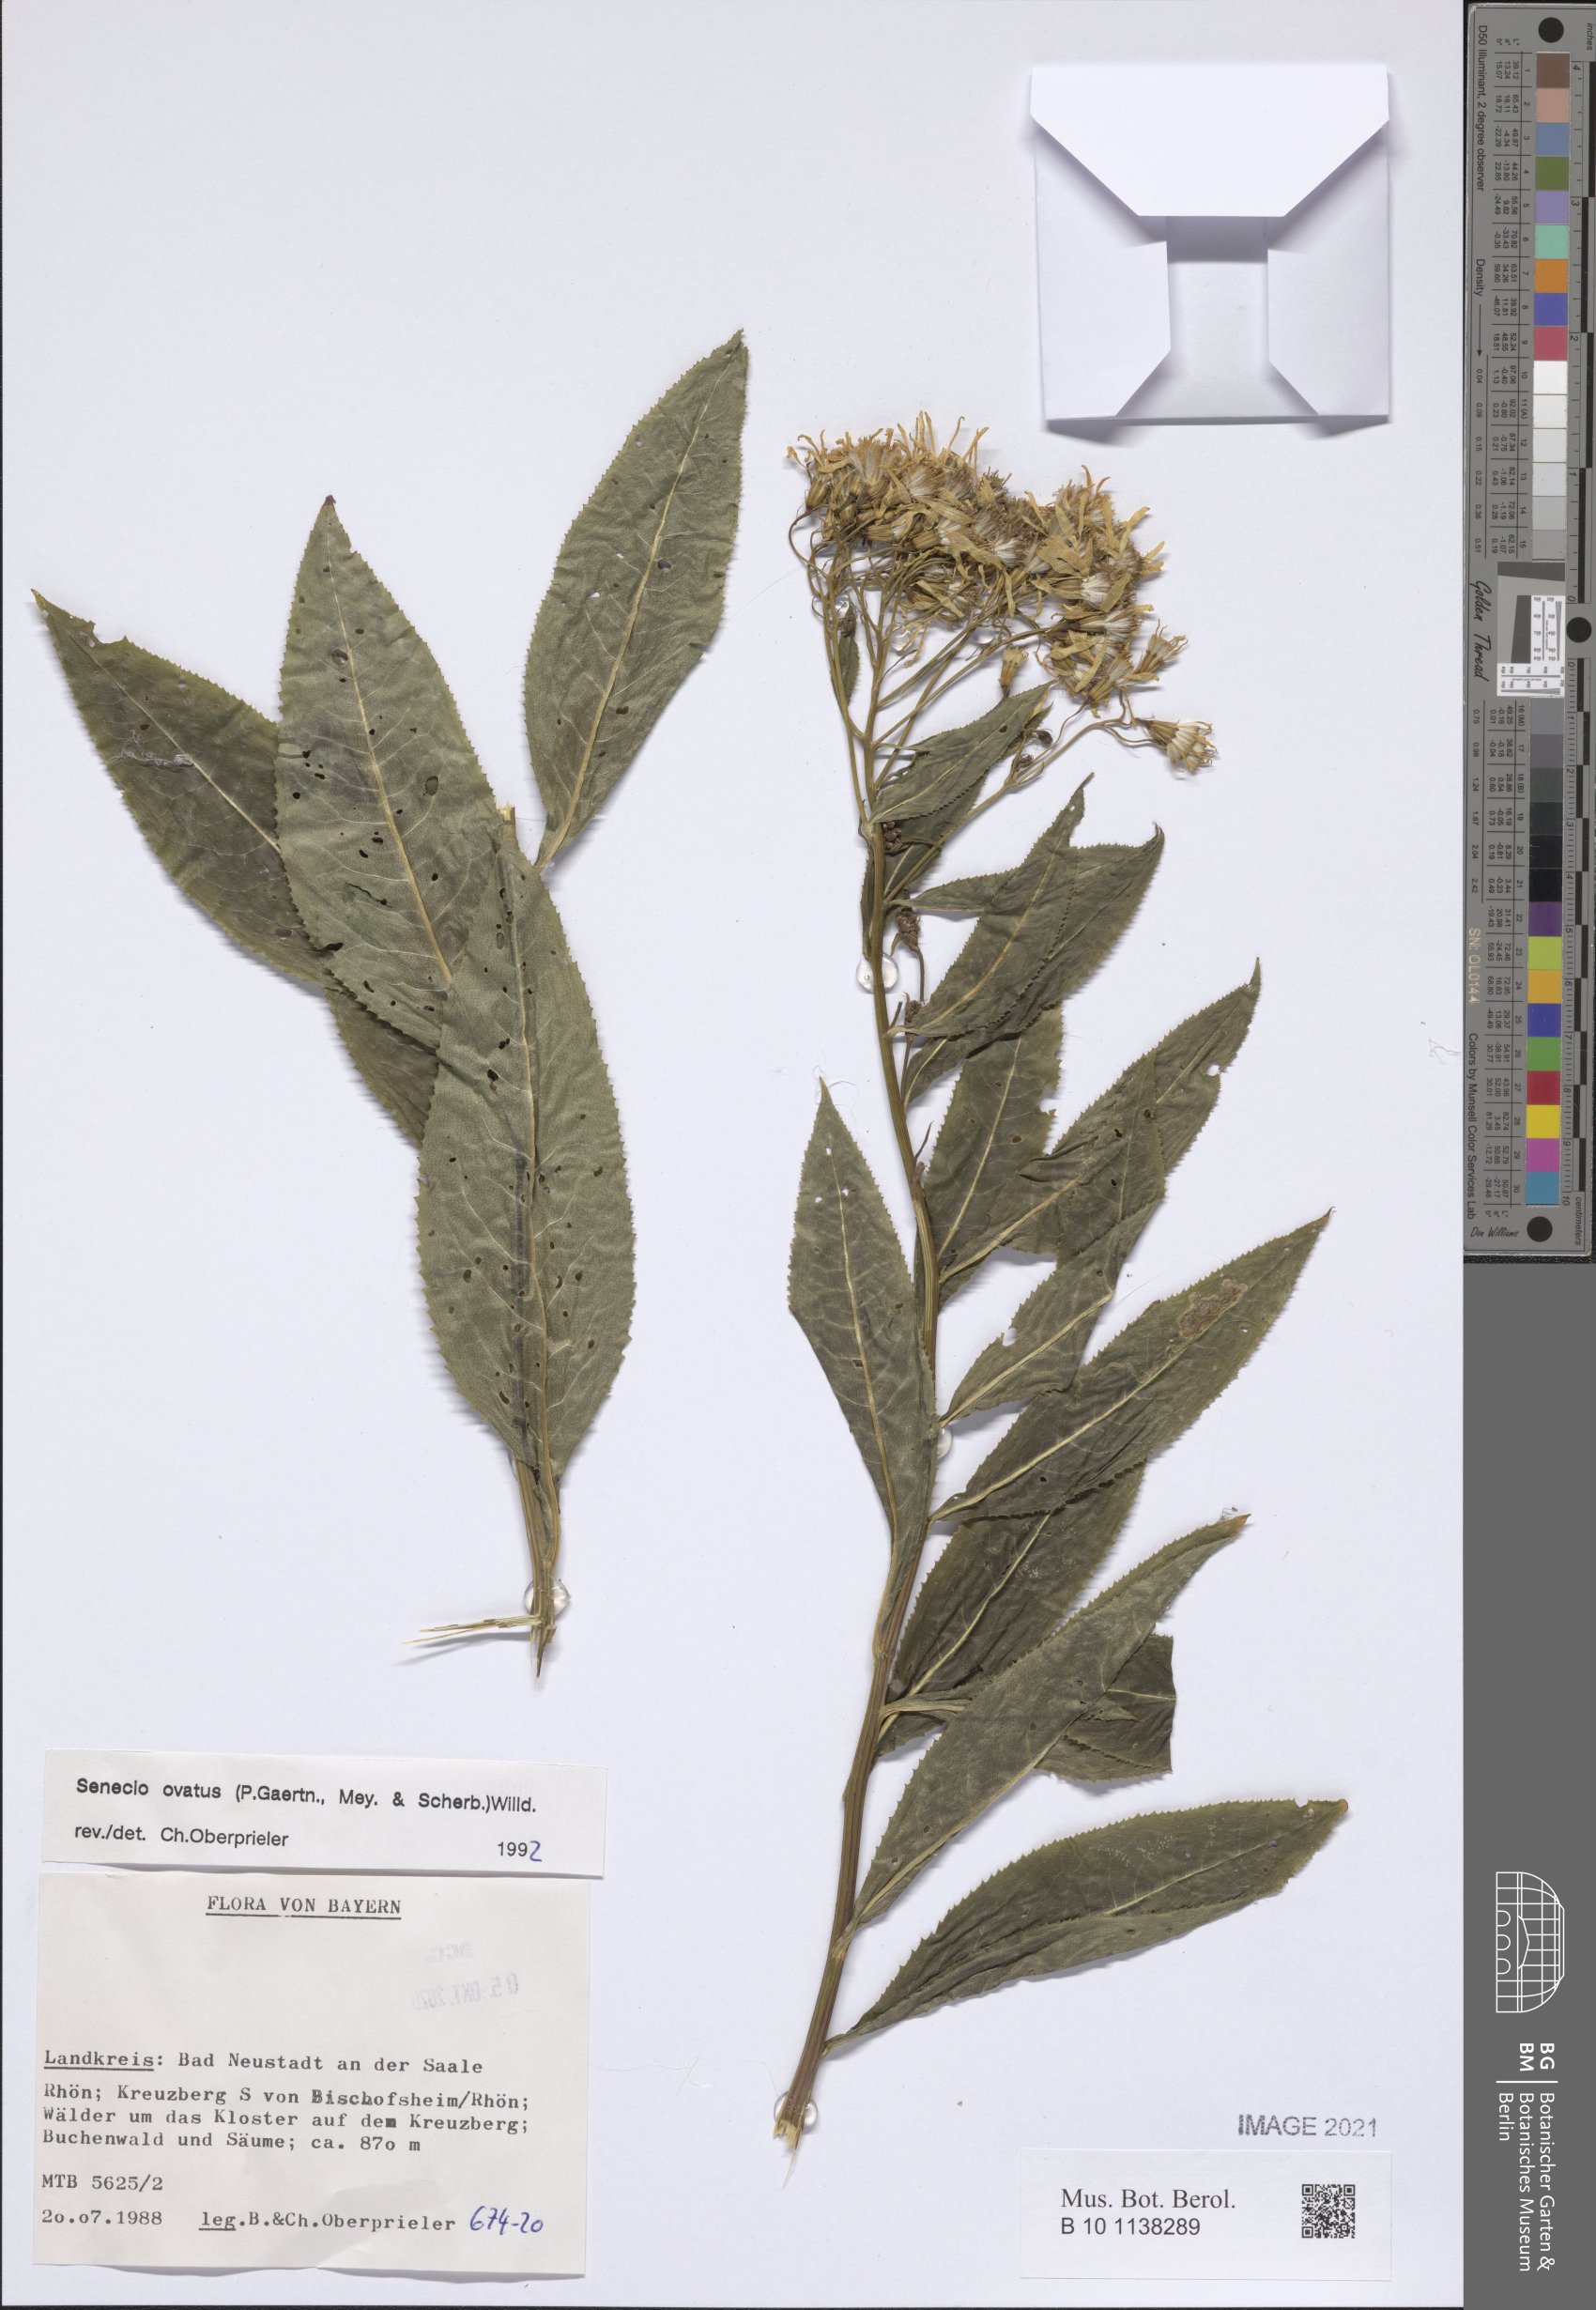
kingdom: Plantae
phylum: Tracheophyta
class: Magnoliopsida
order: Asterales
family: Asteraceae
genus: Senecio
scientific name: Senecio ovatus
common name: Wood ragwort
